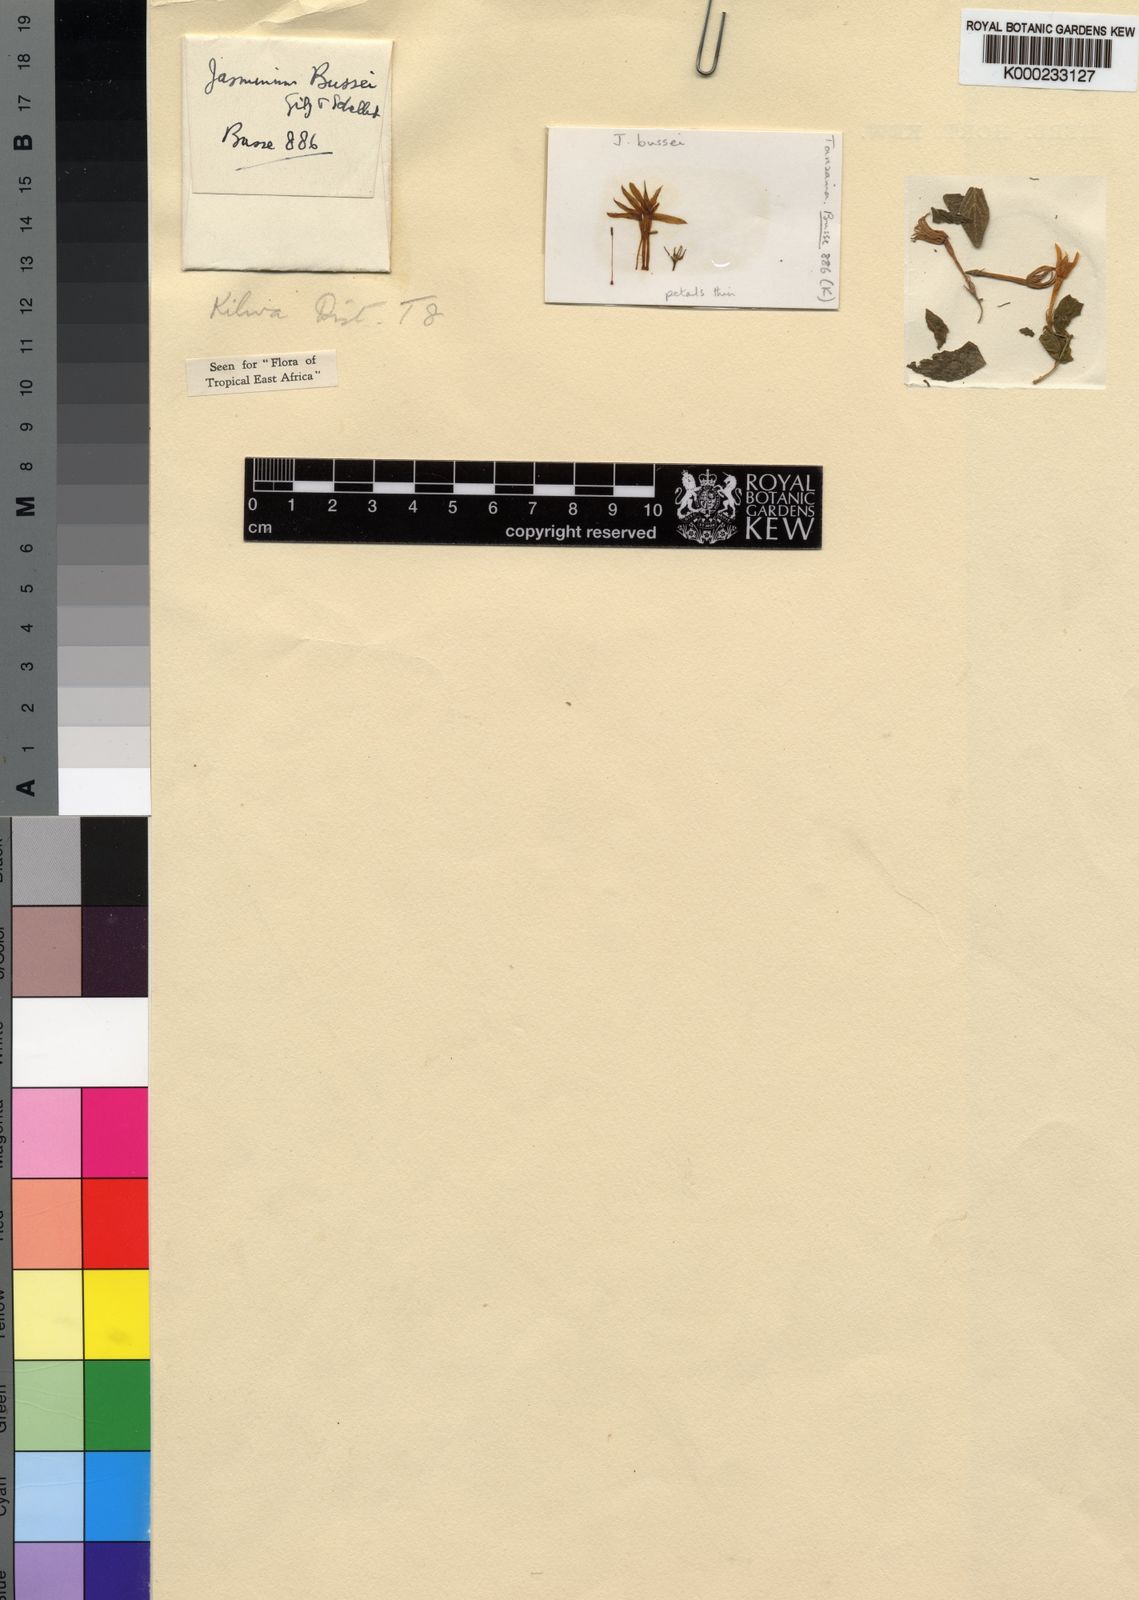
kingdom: Plantae
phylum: Tracheophyta
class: Magnoliopsida
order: Lamiales
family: Oleaceae
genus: Jasminum
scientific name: Jasminum streptopus
